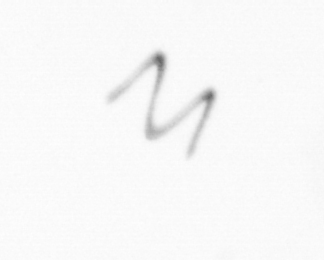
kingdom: Chromista
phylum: Ochrophyta
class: Bacillariophyceae
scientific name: Bacillariophyceae
